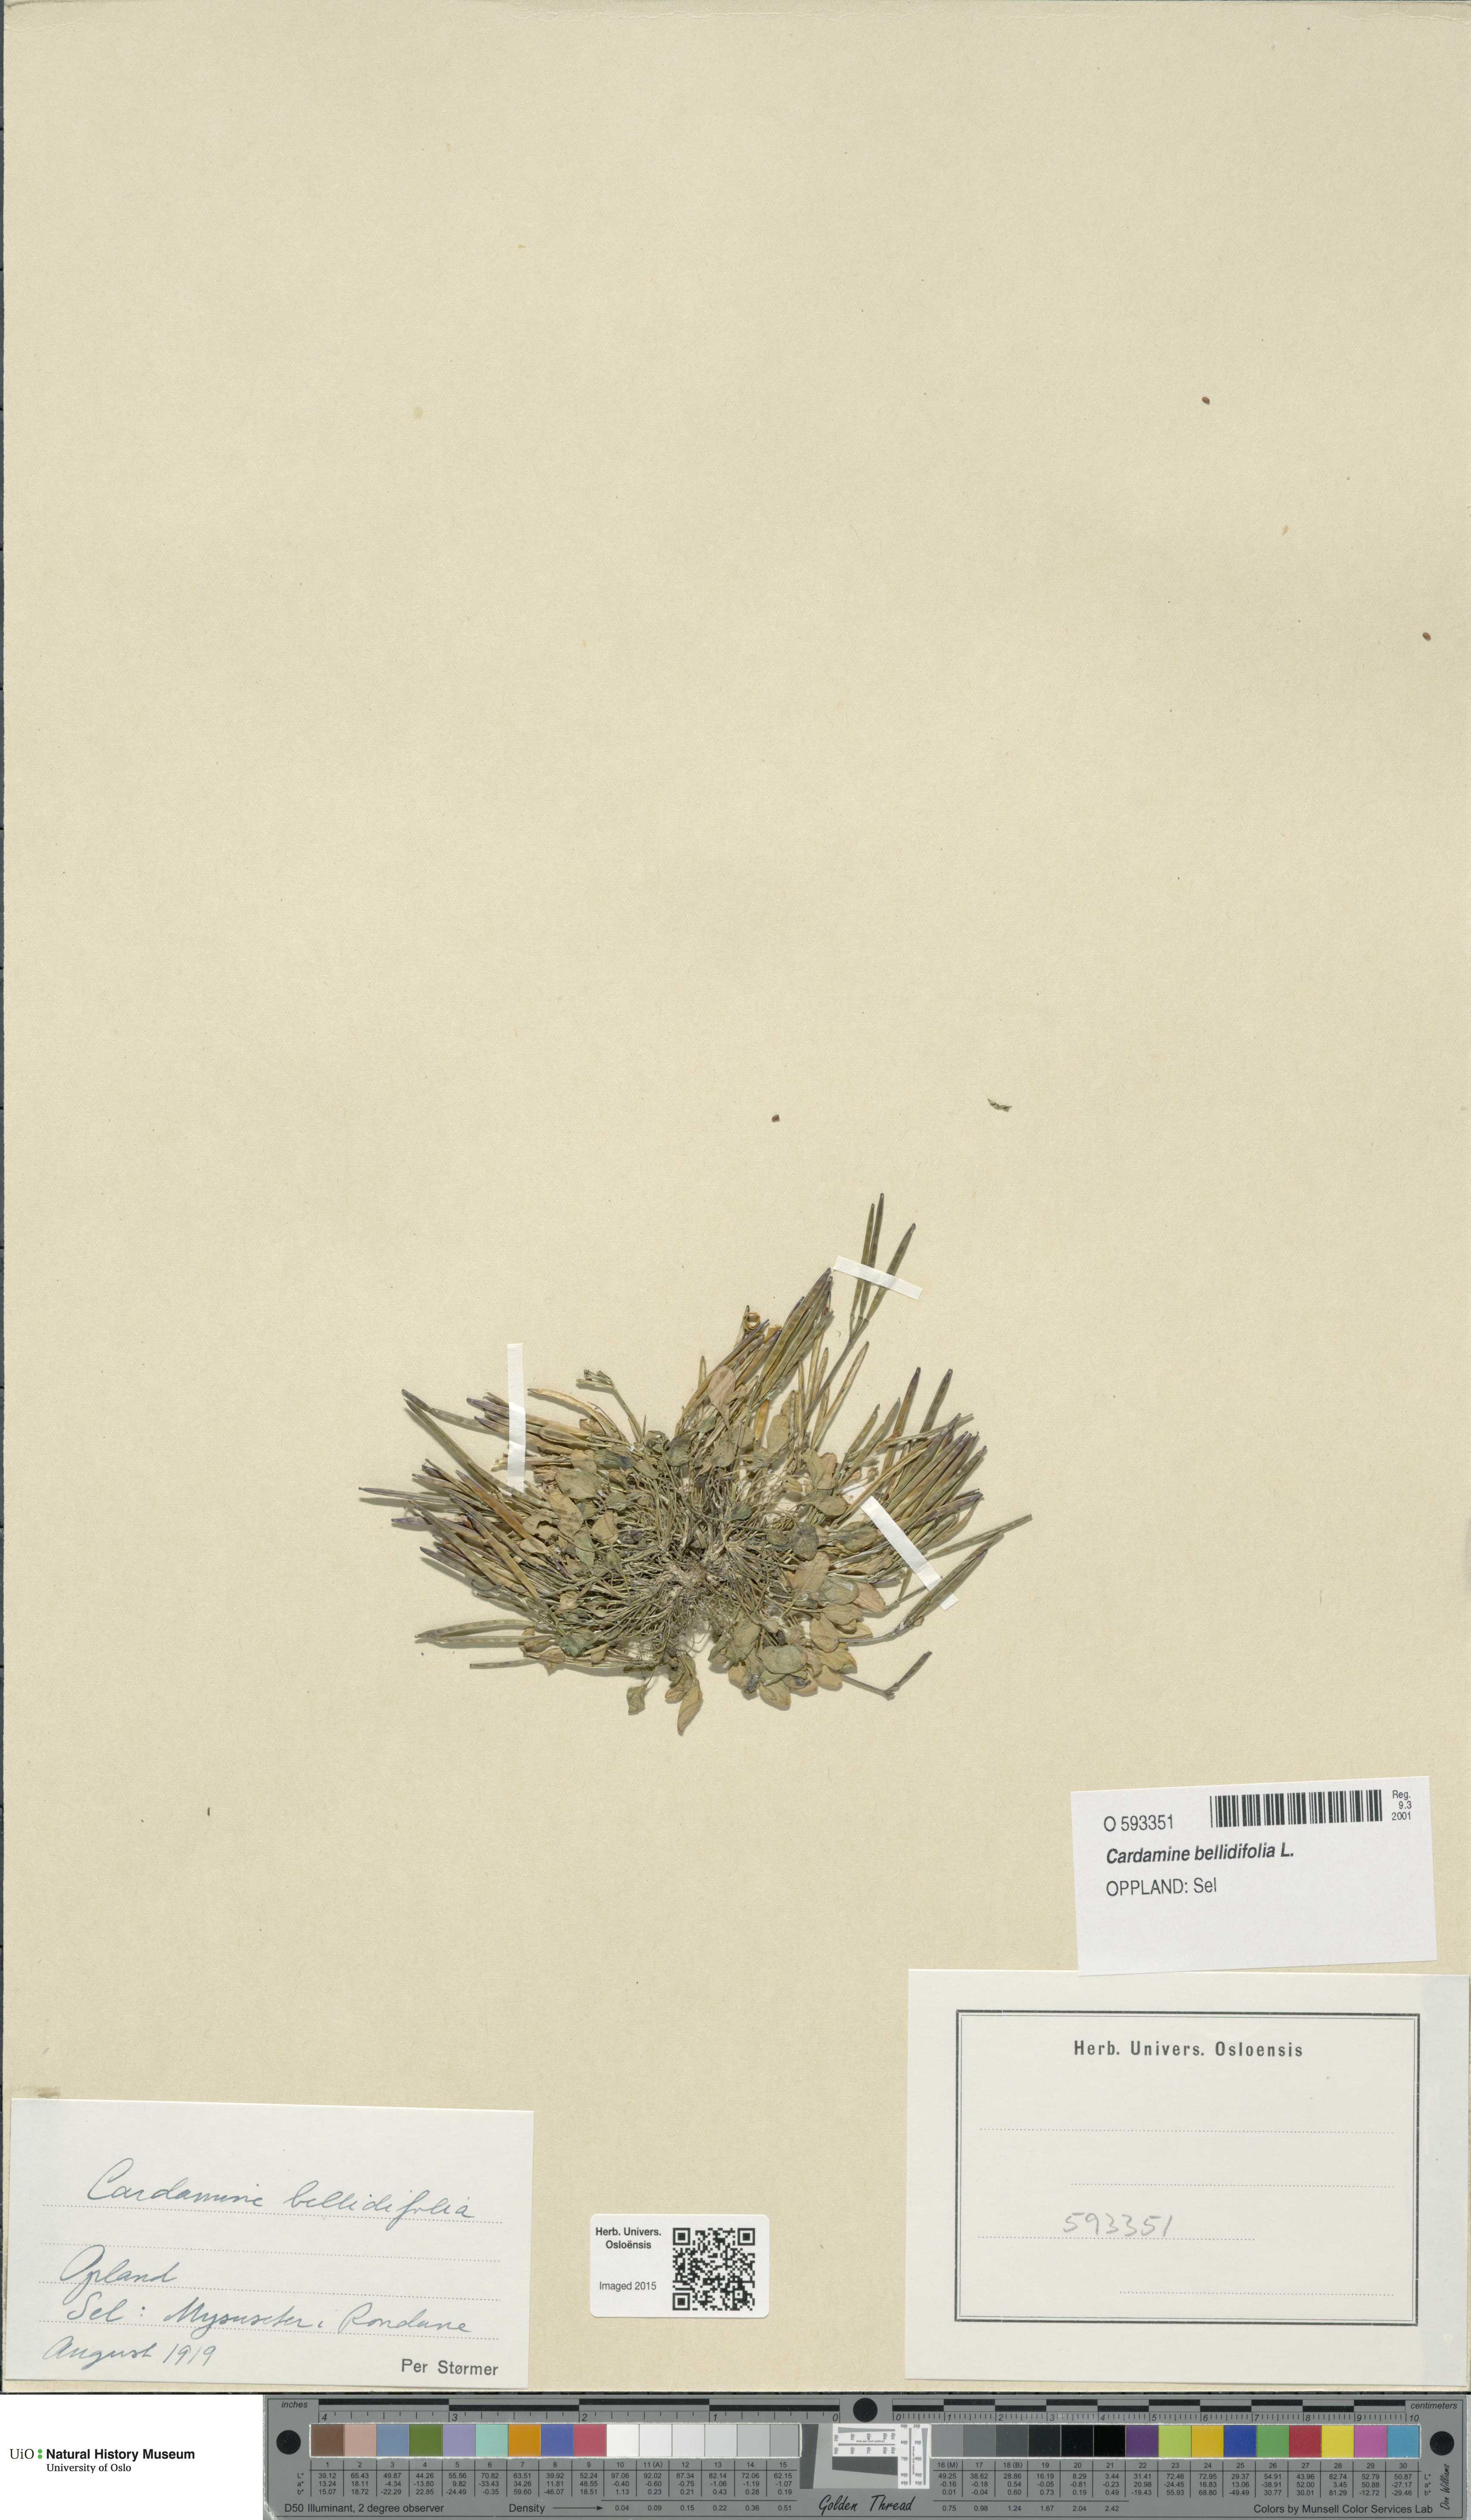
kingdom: Plantae
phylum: Tracheophyta
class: Magnoliopsida
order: Brassicales
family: Brassicaceae
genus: Cardamine
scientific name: Cardamine bellidifolia
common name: Alpine bittercress
